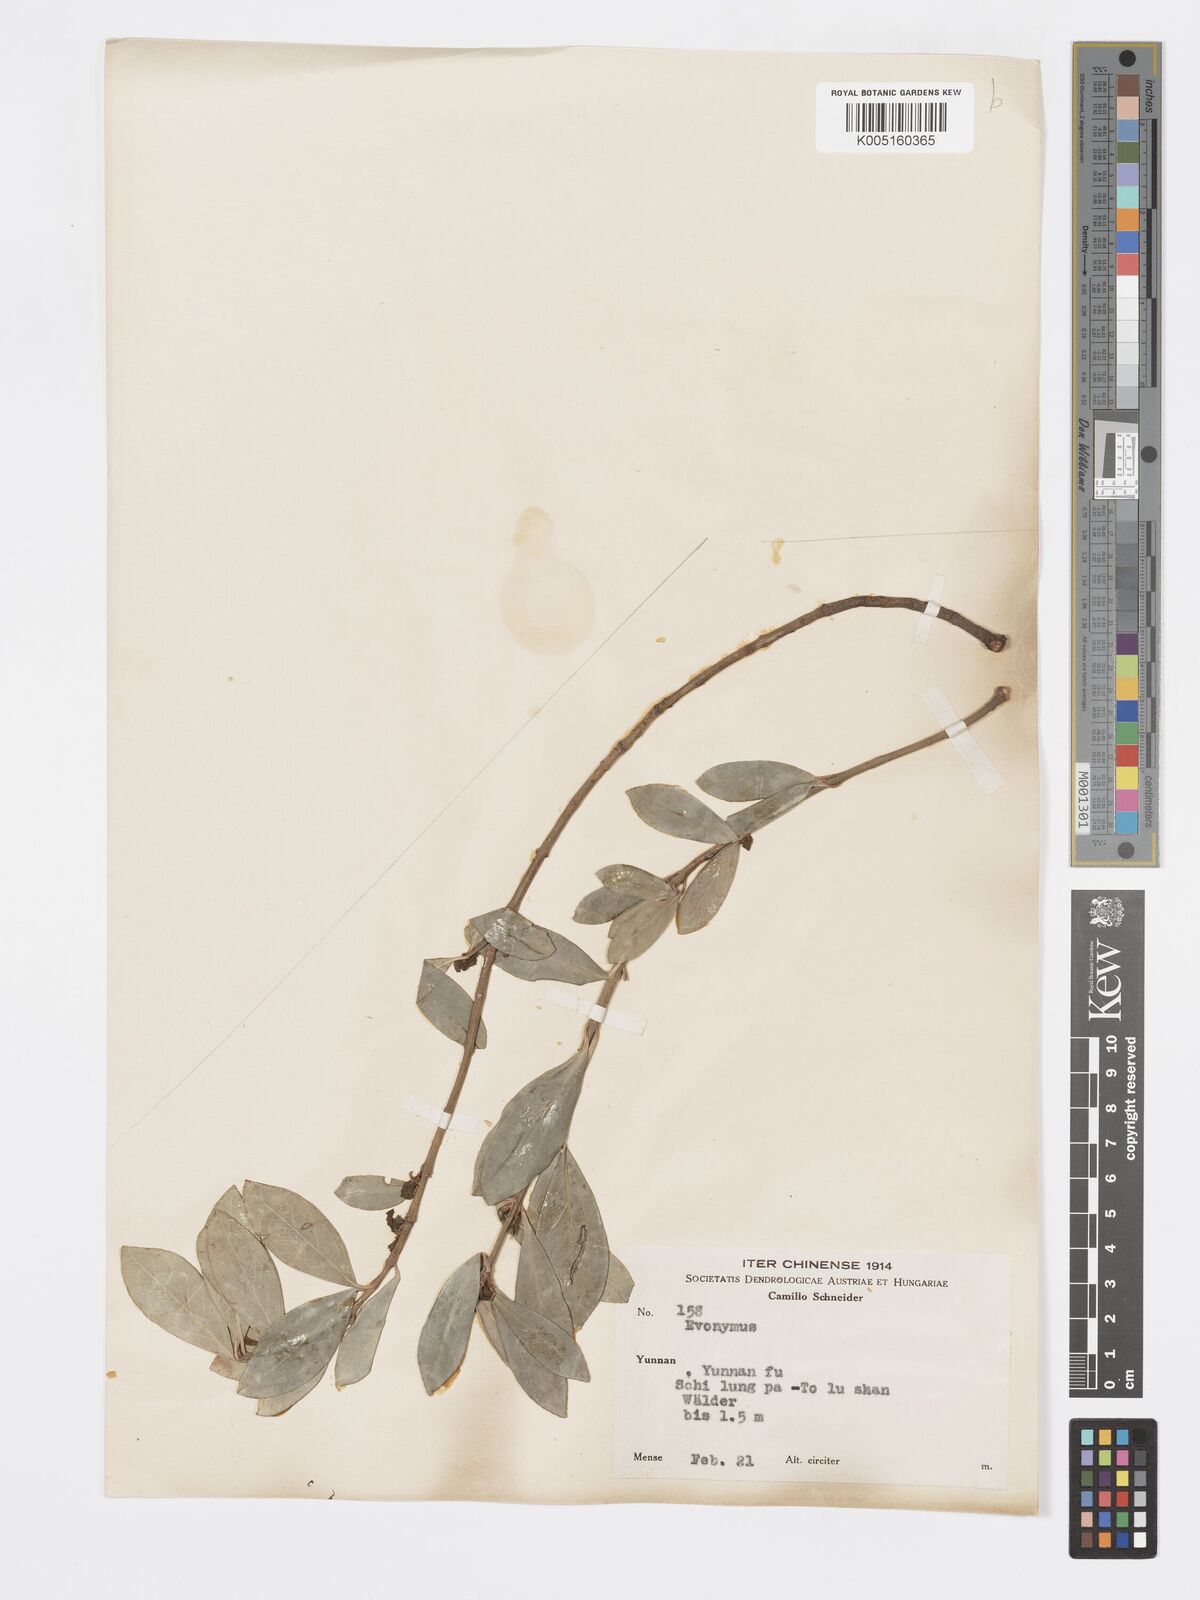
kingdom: Plantae
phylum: Tracheophyta
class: Magnoliopsida
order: Celastrales
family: Celastraceae
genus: Euonymus
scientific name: Euonymus
